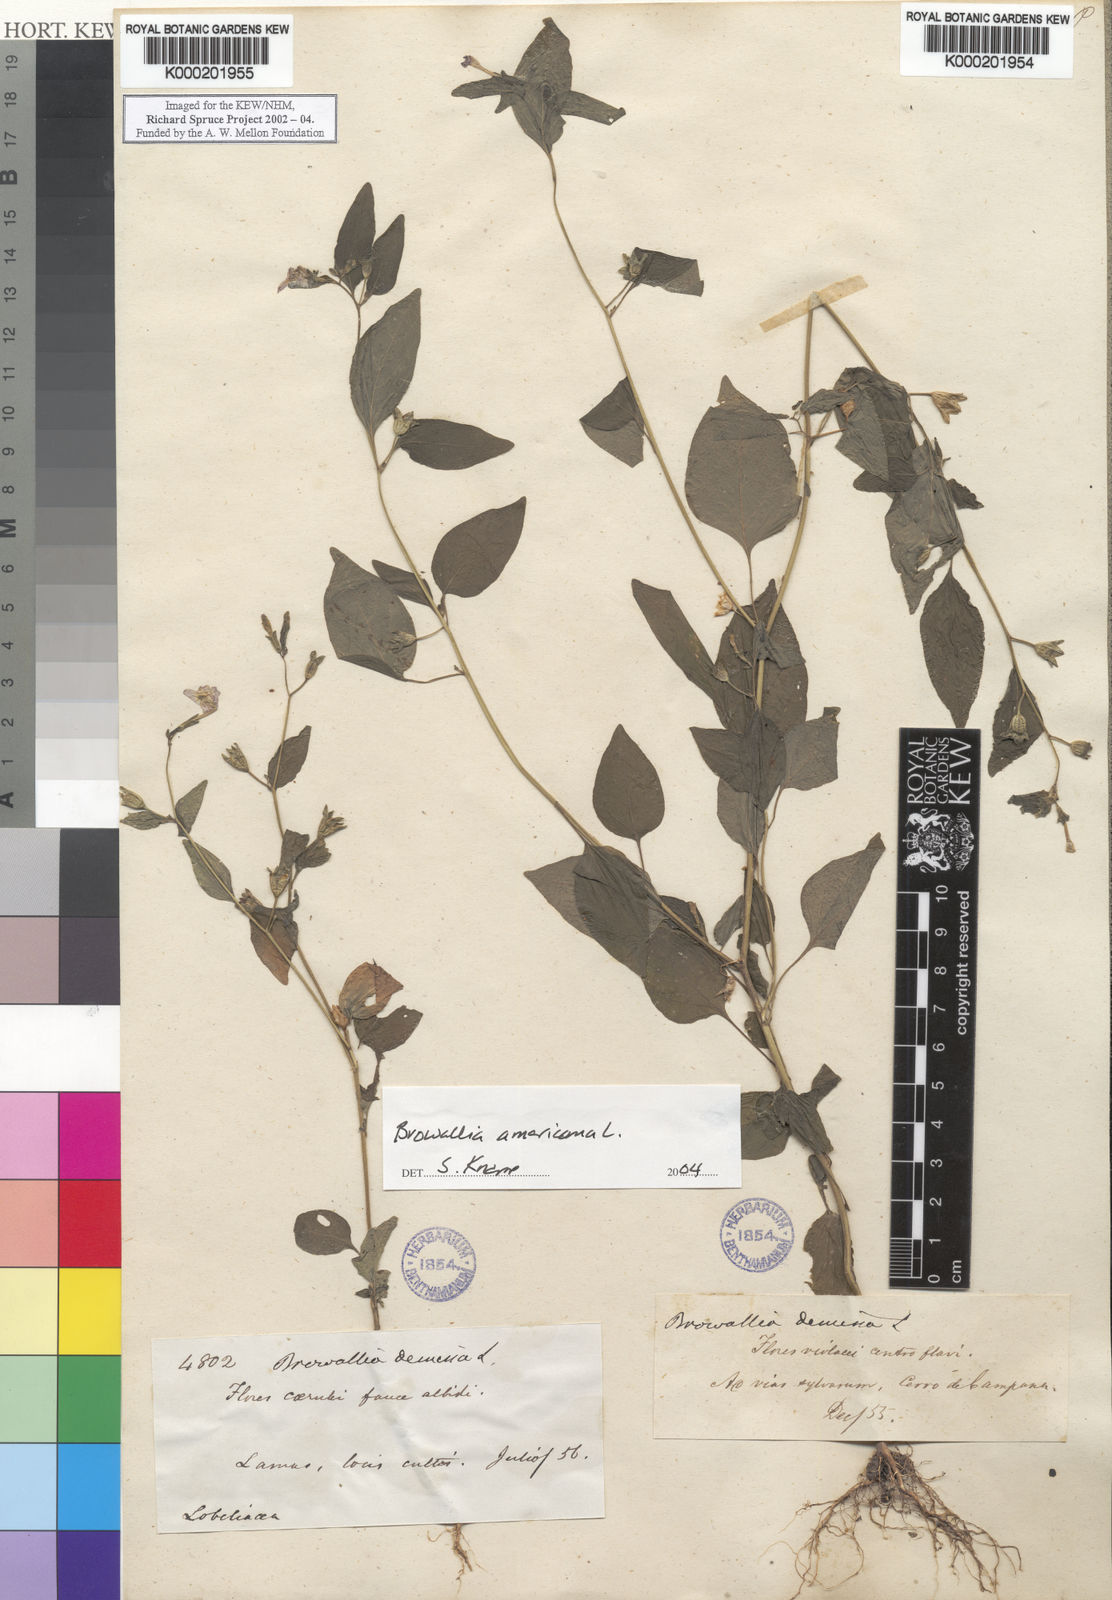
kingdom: Plantae
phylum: Tracheophyta
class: Magnoliopsida
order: Solanales
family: Solanaceae
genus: Browallia
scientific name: Browallia americana
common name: Jamaican forget-me-not
